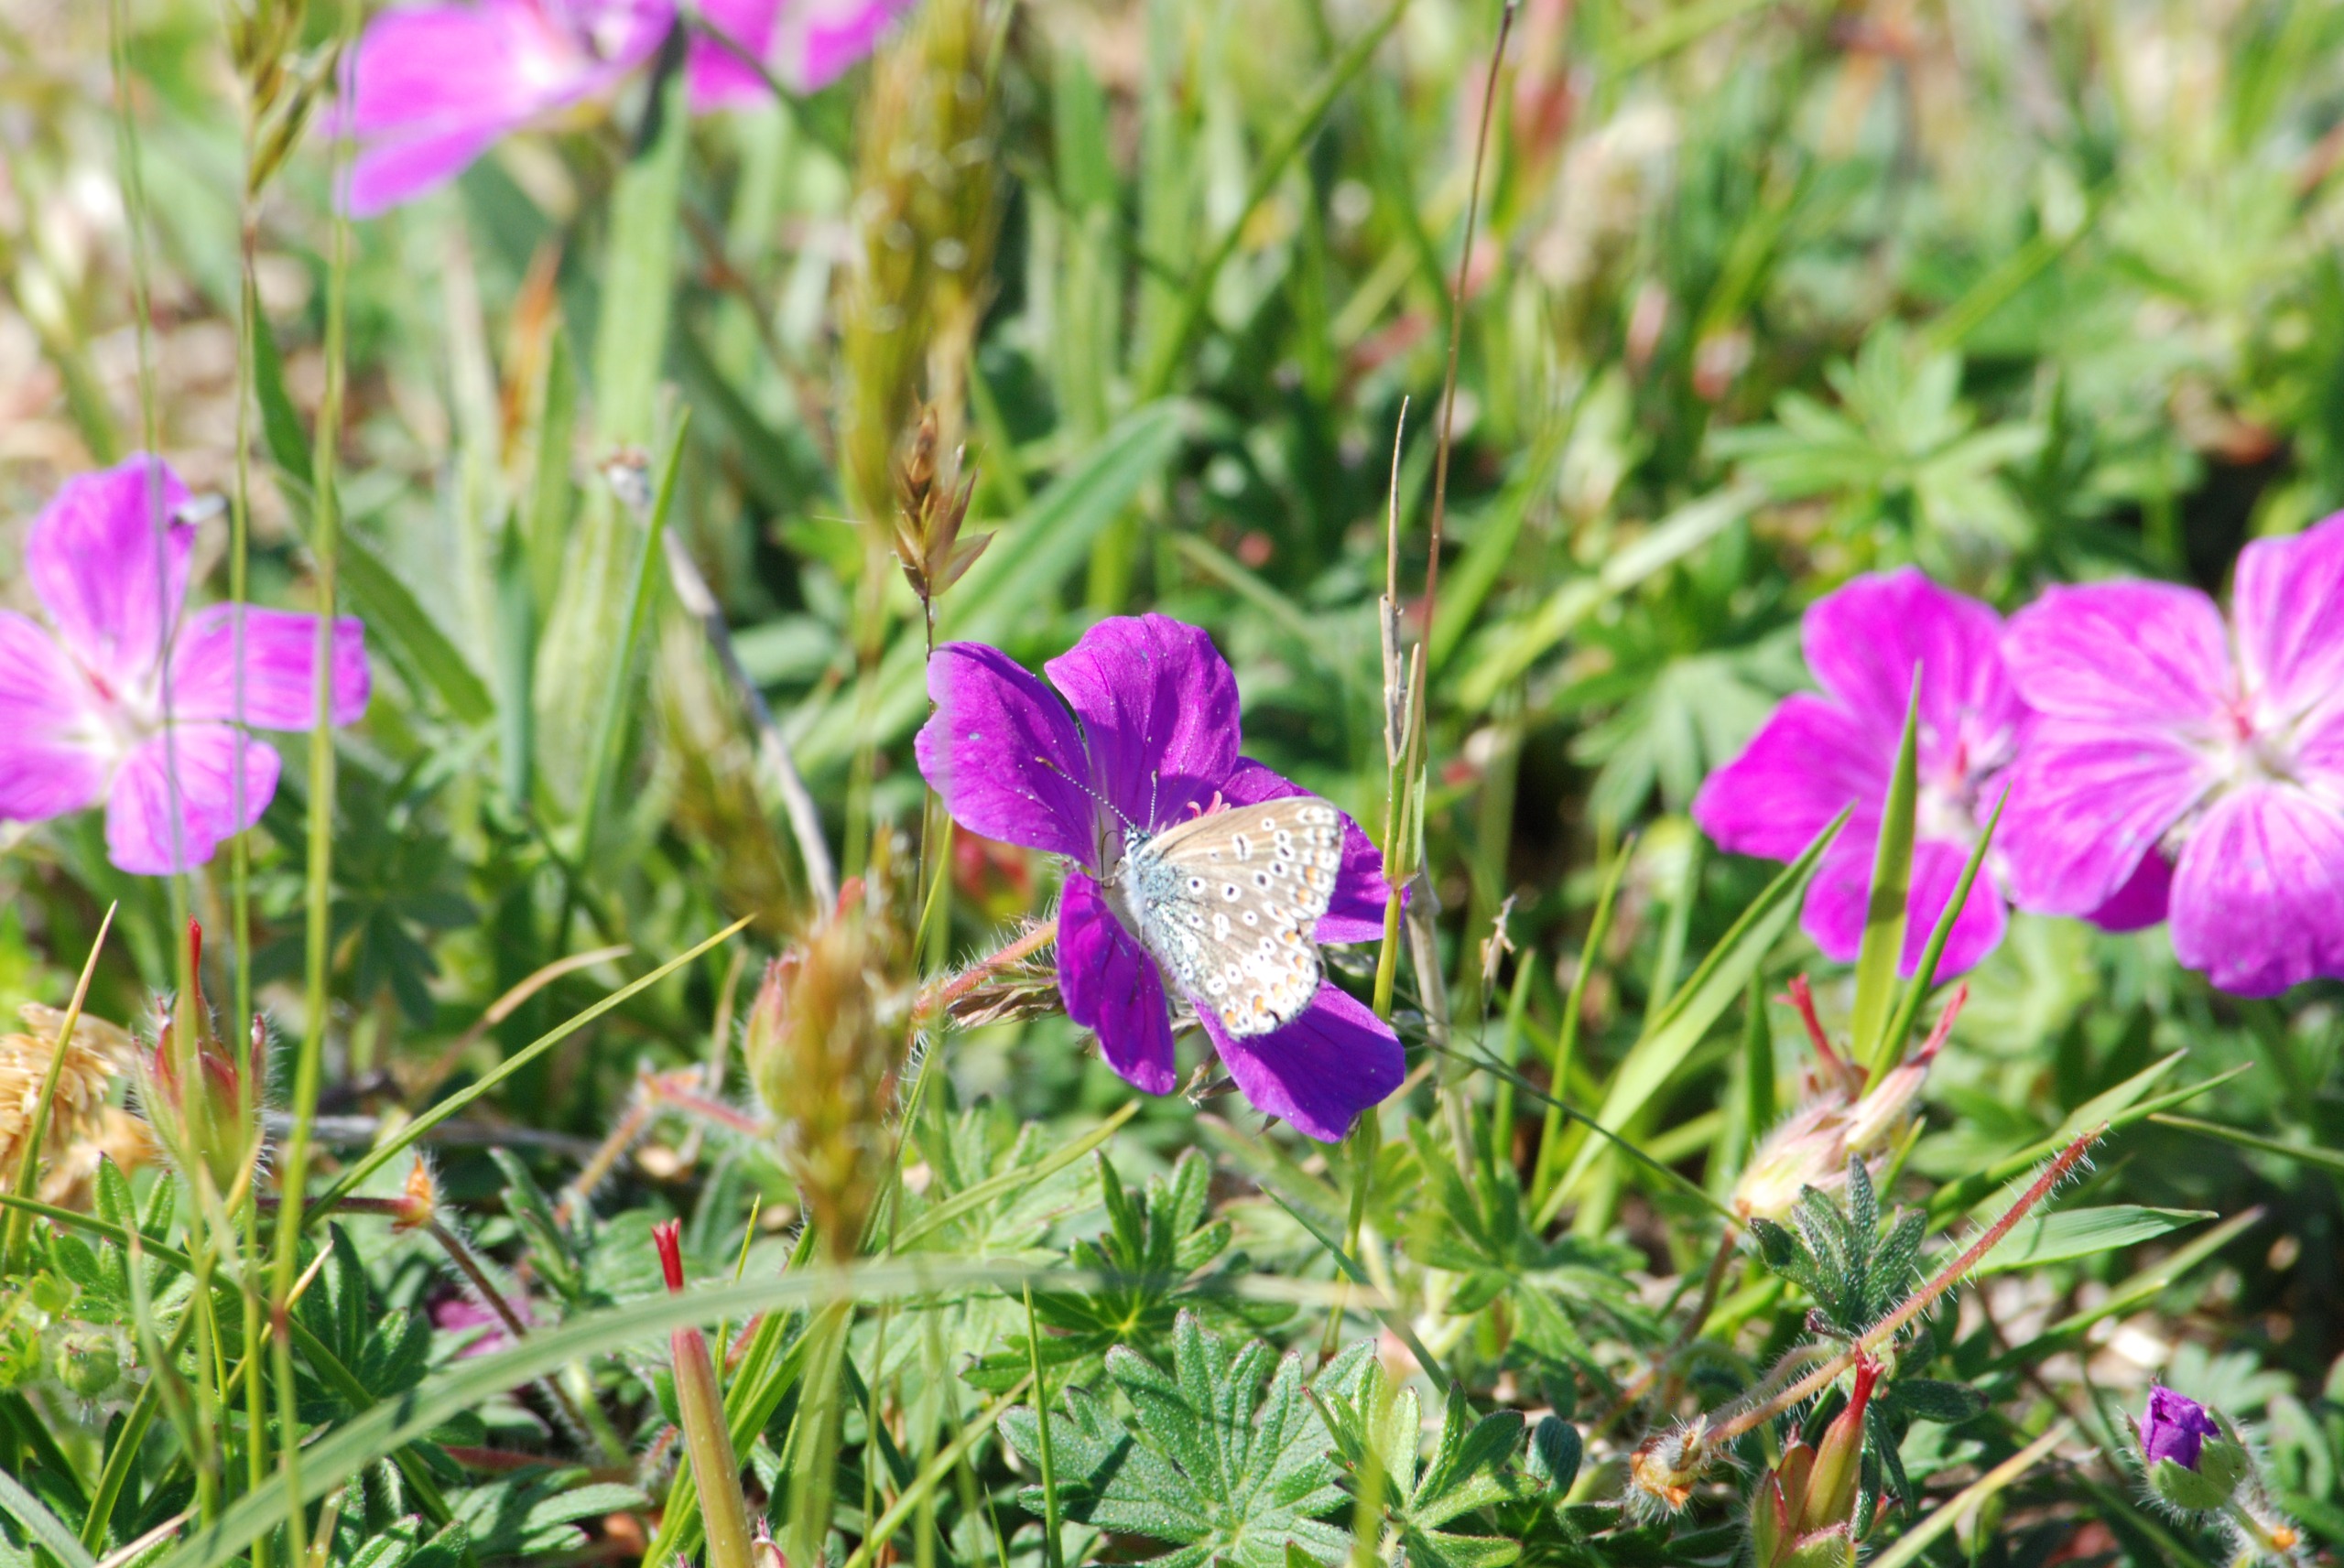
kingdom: Animalia
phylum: Arthropoda
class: Insecta
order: Lepidoptera
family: Lycaenidae
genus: Polyommatus
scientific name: Polyommatus icarus
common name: Almindelig blåfugl
